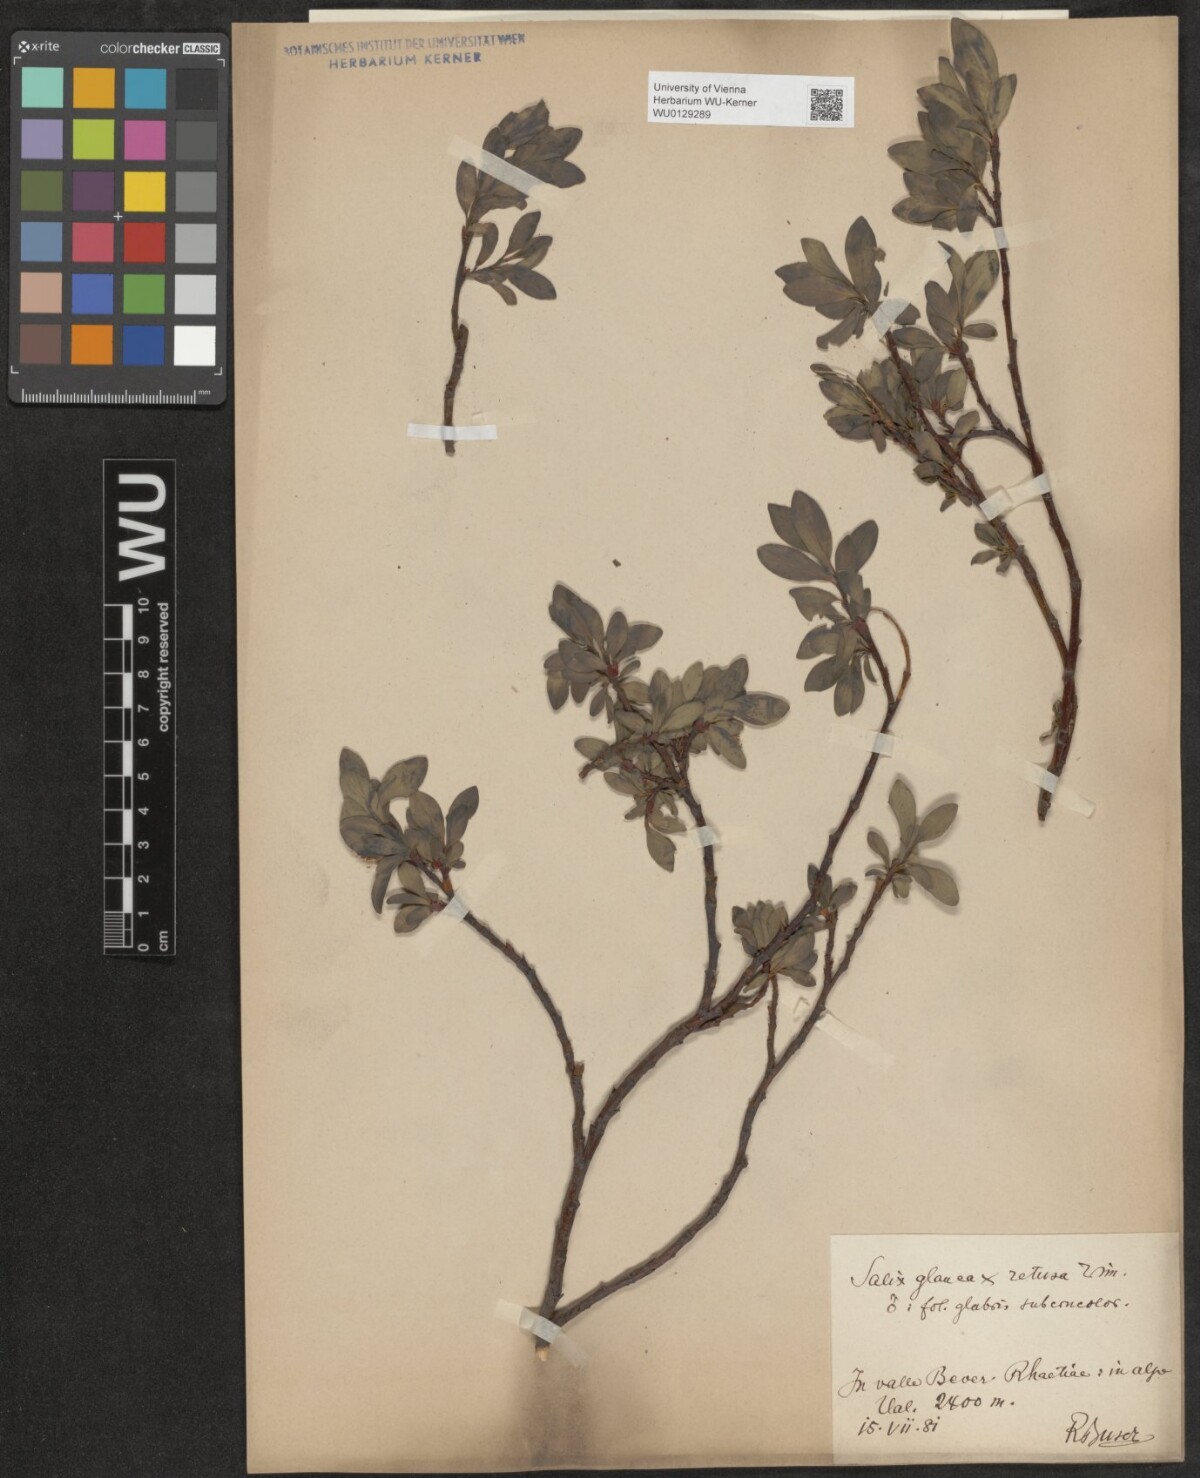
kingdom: Plantae
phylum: Tracheophyta
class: Magnoliopsida
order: Malpighiales
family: Salicaceae
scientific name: Salicaceae
